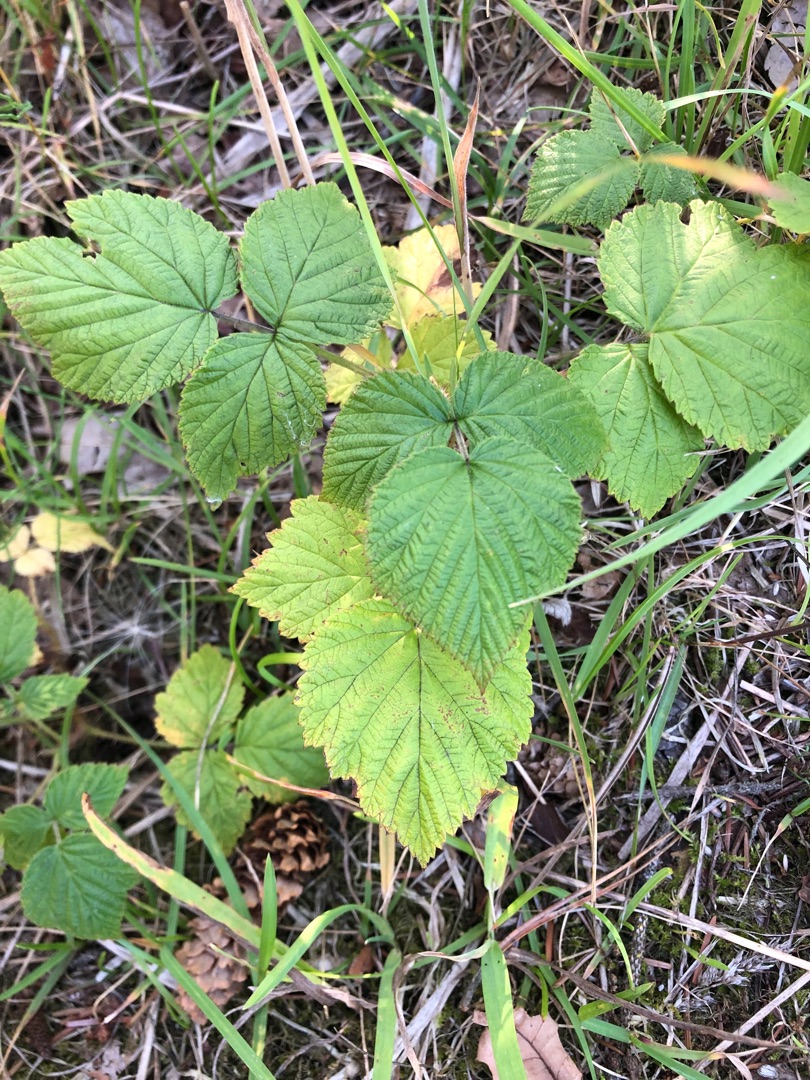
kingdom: Plantae
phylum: Tracheophyta
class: Magnoliopsida
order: Rosales
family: Rosaceae
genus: Rubus
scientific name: Rubus idaeus
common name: Hindbær
